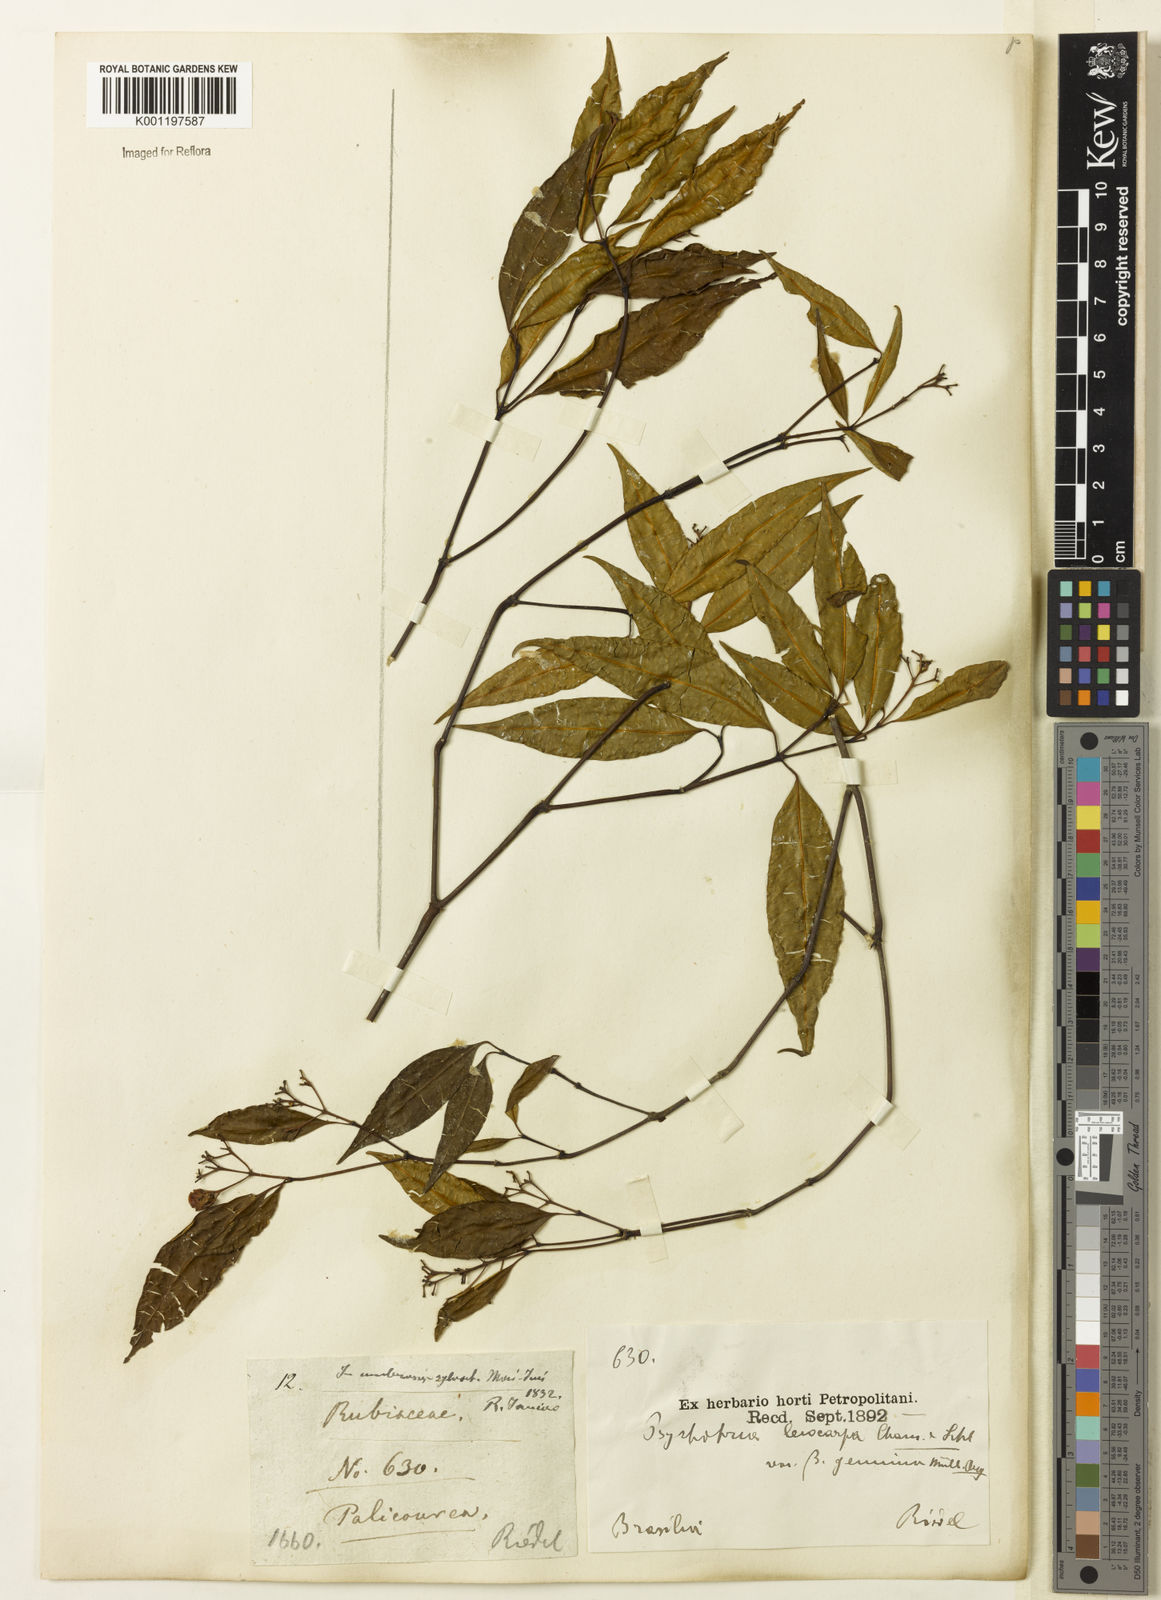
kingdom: Plantae
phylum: Tracheophyta
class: Magnoliopsida
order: Gentianales
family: Rubiaceae
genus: Psychotria
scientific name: Psychotria leiocarpa
